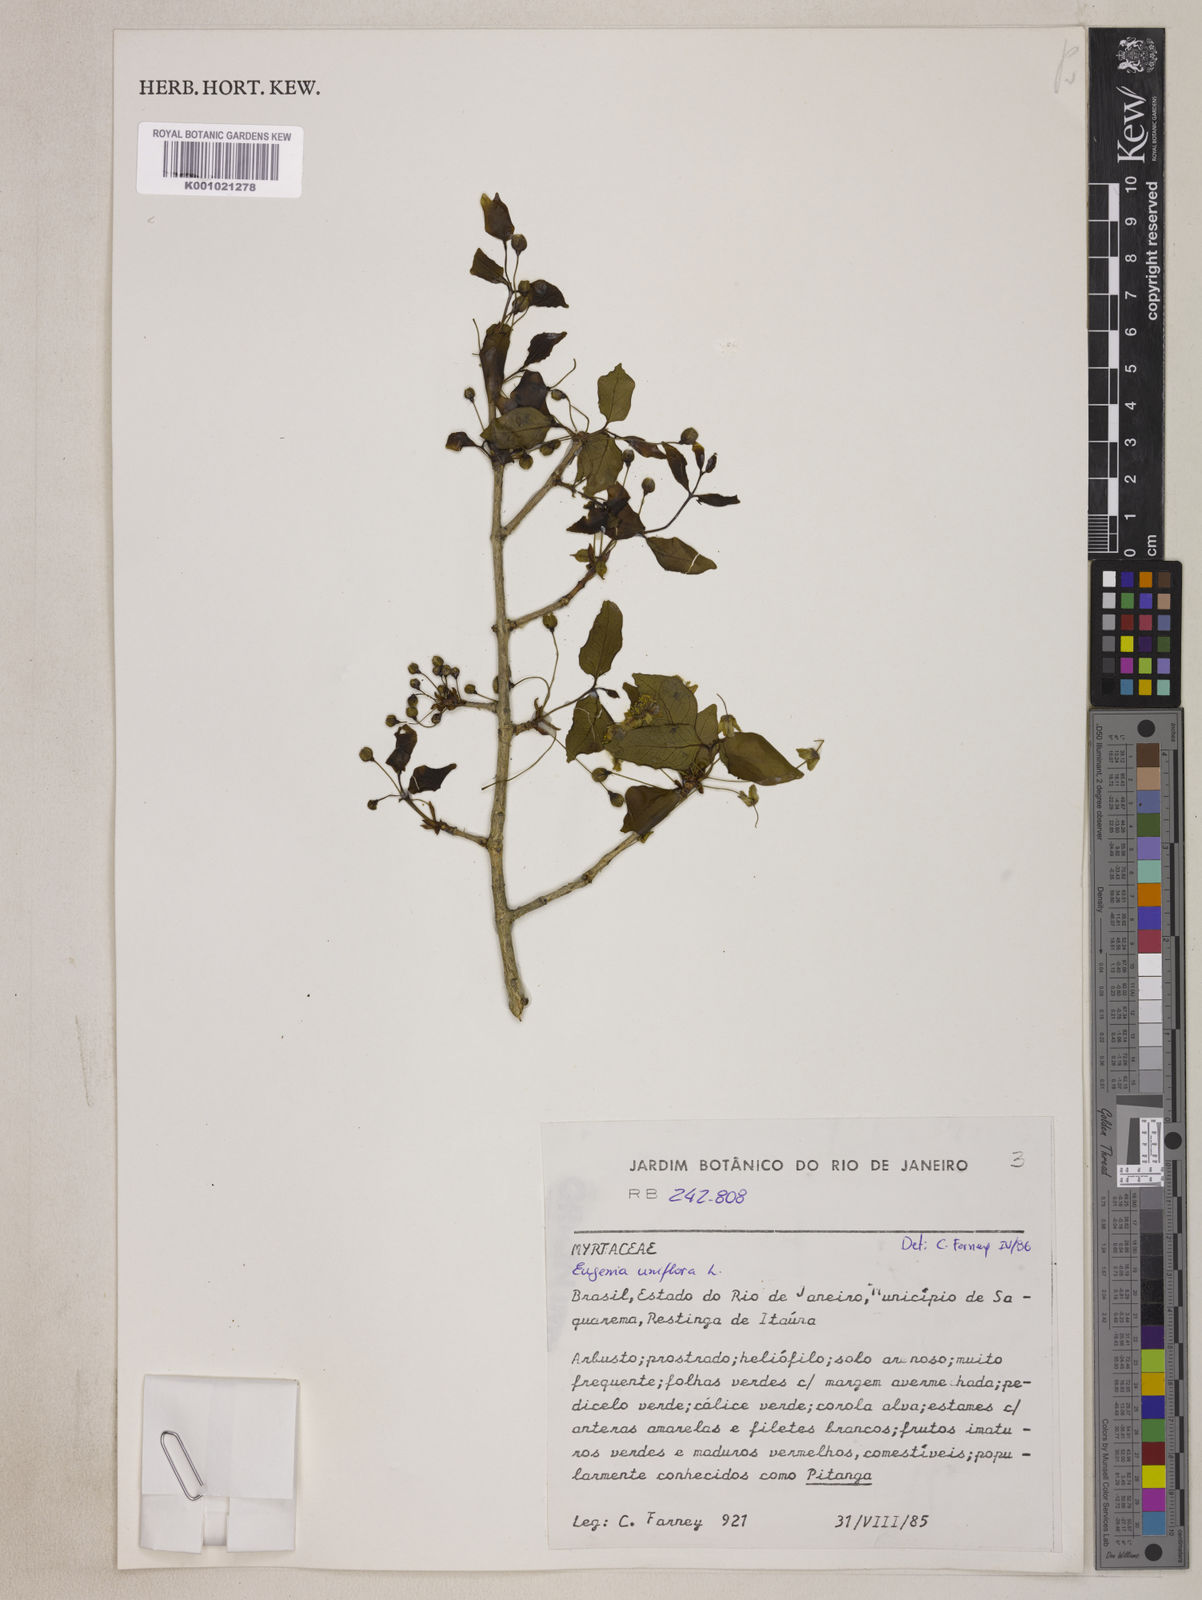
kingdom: Plantae
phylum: Tracheophyta
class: Magnoliopsida
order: Myrtales
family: Myrtaceae
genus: Eugenia
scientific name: Eugenia uniflora
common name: Surinam cherry
